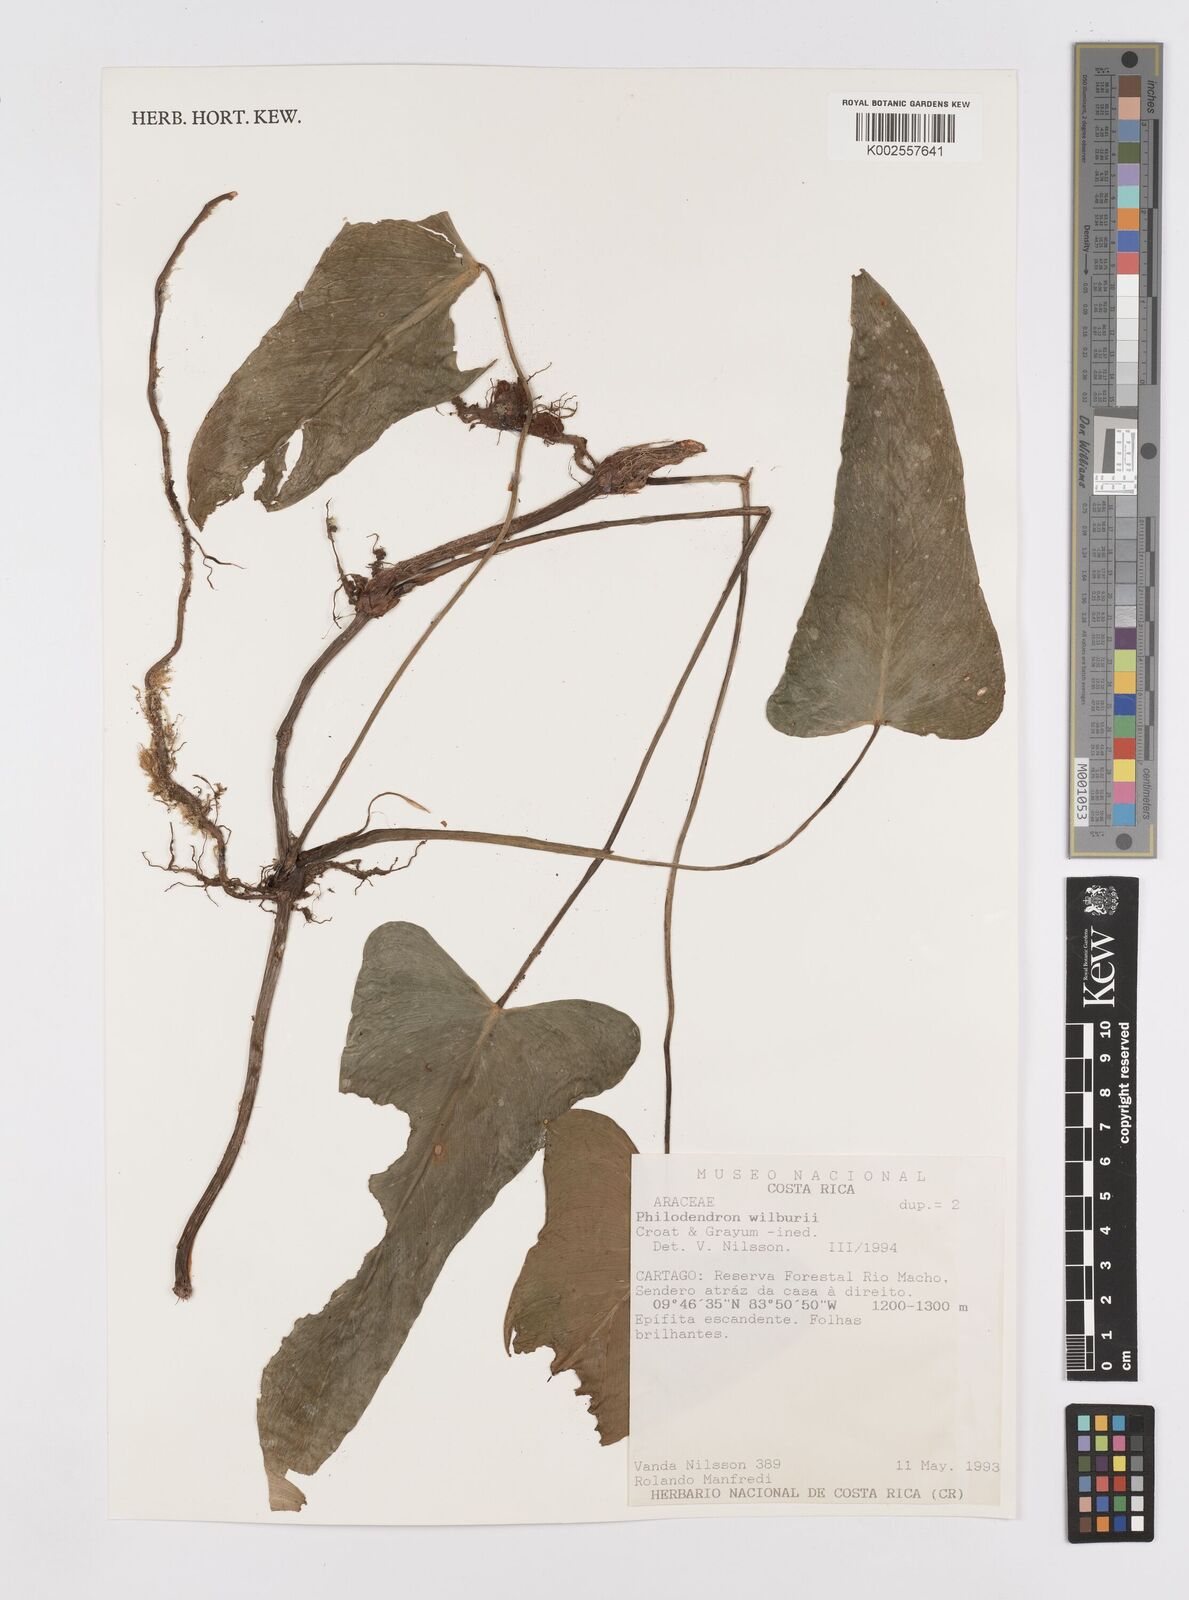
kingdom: Plantae
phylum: Tracheophyta
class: Liliopsida
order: Alismatales
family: Araceae
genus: Philodendron
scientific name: Philodendron wilburii
